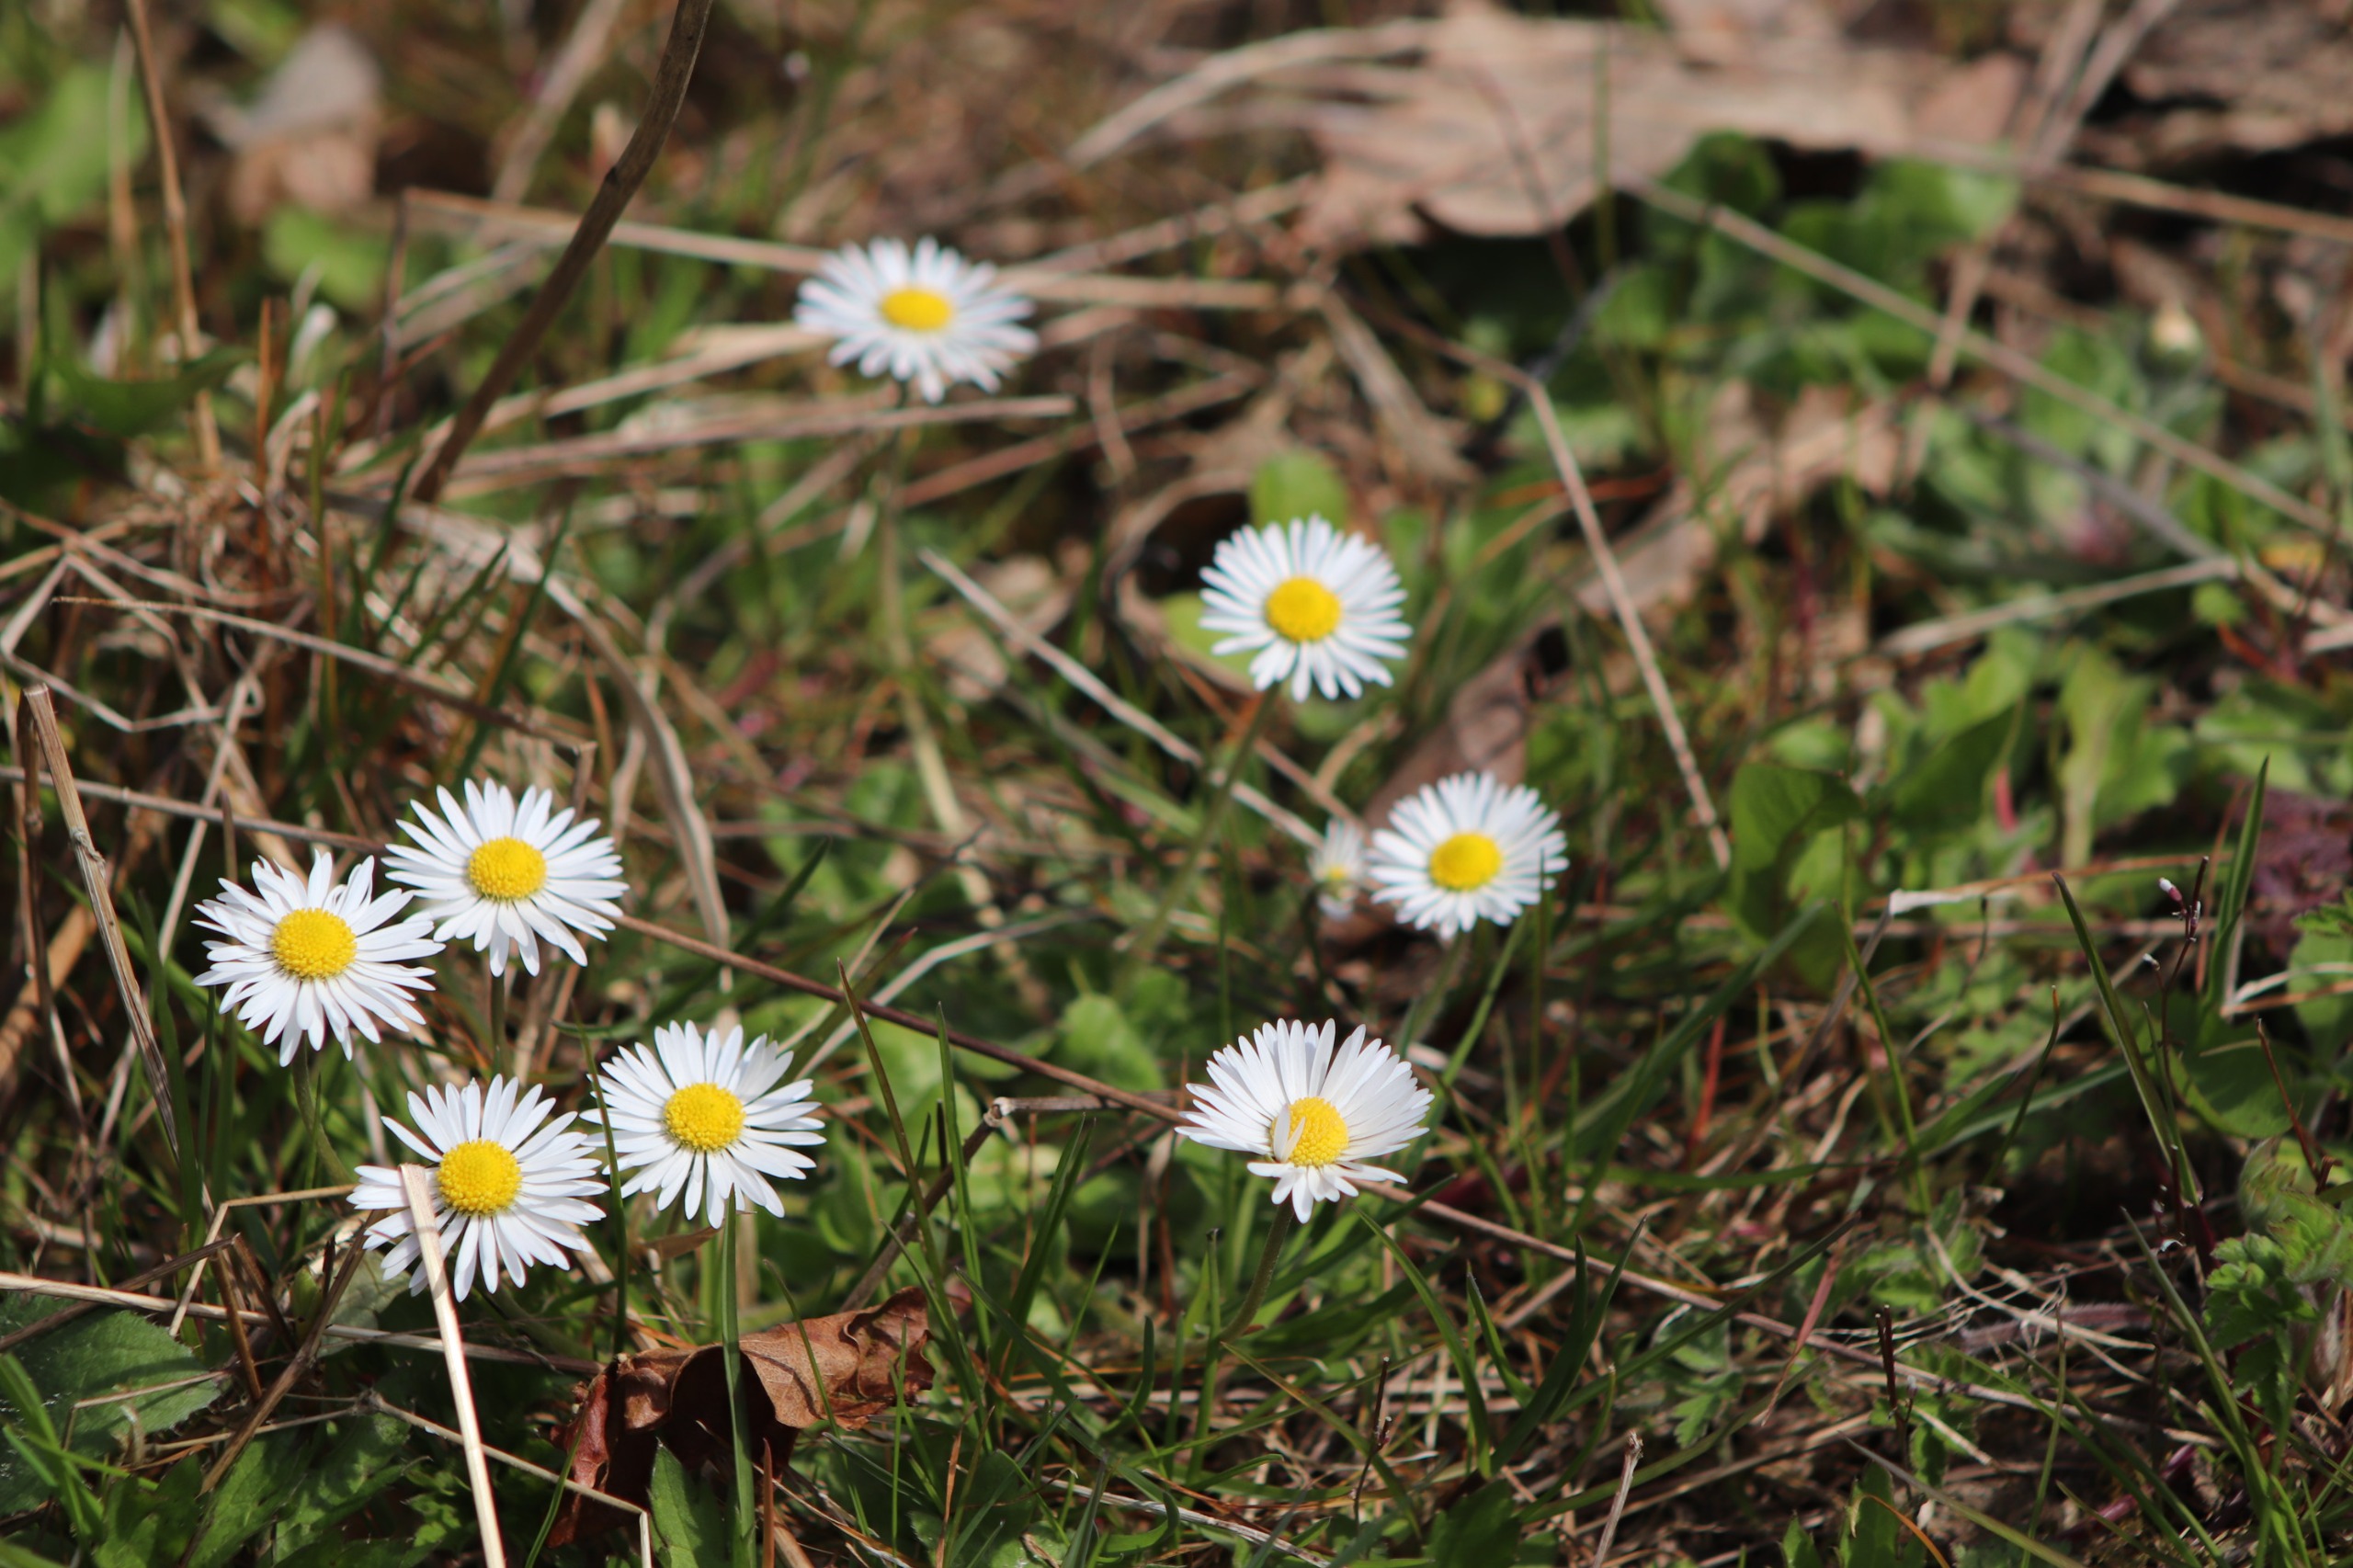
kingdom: Plantae
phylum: Tracheophyta
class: Magnoliopsida
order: Asterales
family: Asteraceae
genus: Bellis
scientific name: Bellis perennis
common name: Tusindfryd
